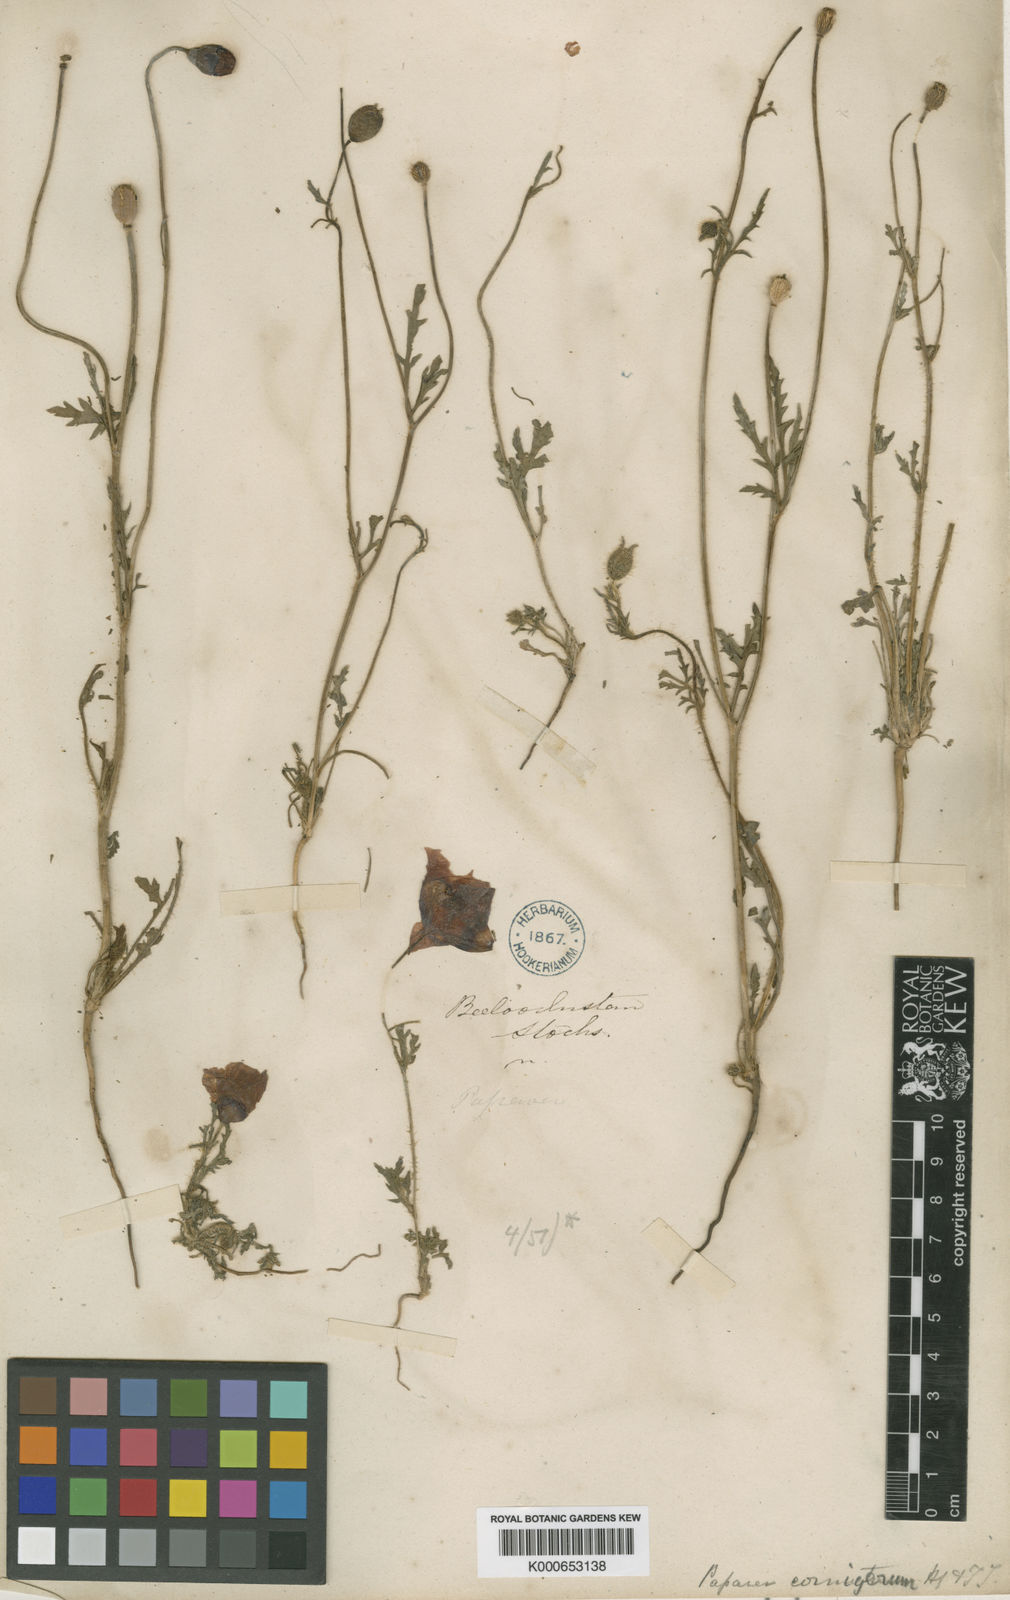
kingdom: Plantae
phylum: Tracheophyta
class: Magnoliopsida
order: Ranunculales
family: Papaveraceae
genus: Papaver
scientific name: Papaver pavoninum
